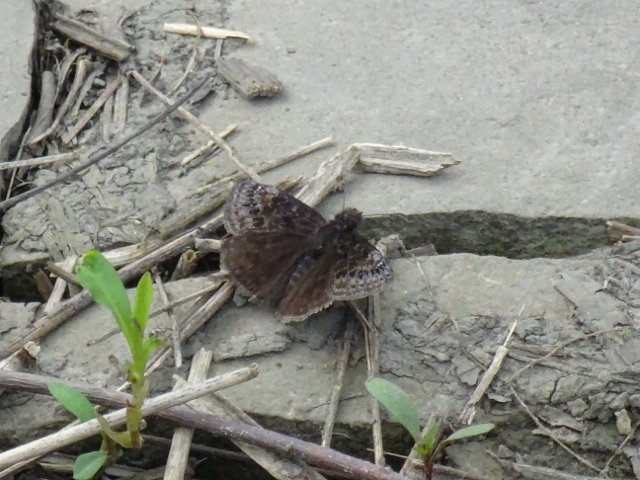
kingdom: Animalia
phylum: Arthropoda
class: Insecta
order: Lepidoptera
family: Hesperiidae
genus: Gesta
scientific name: Gesta
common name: Wild Indigo Duskywing
